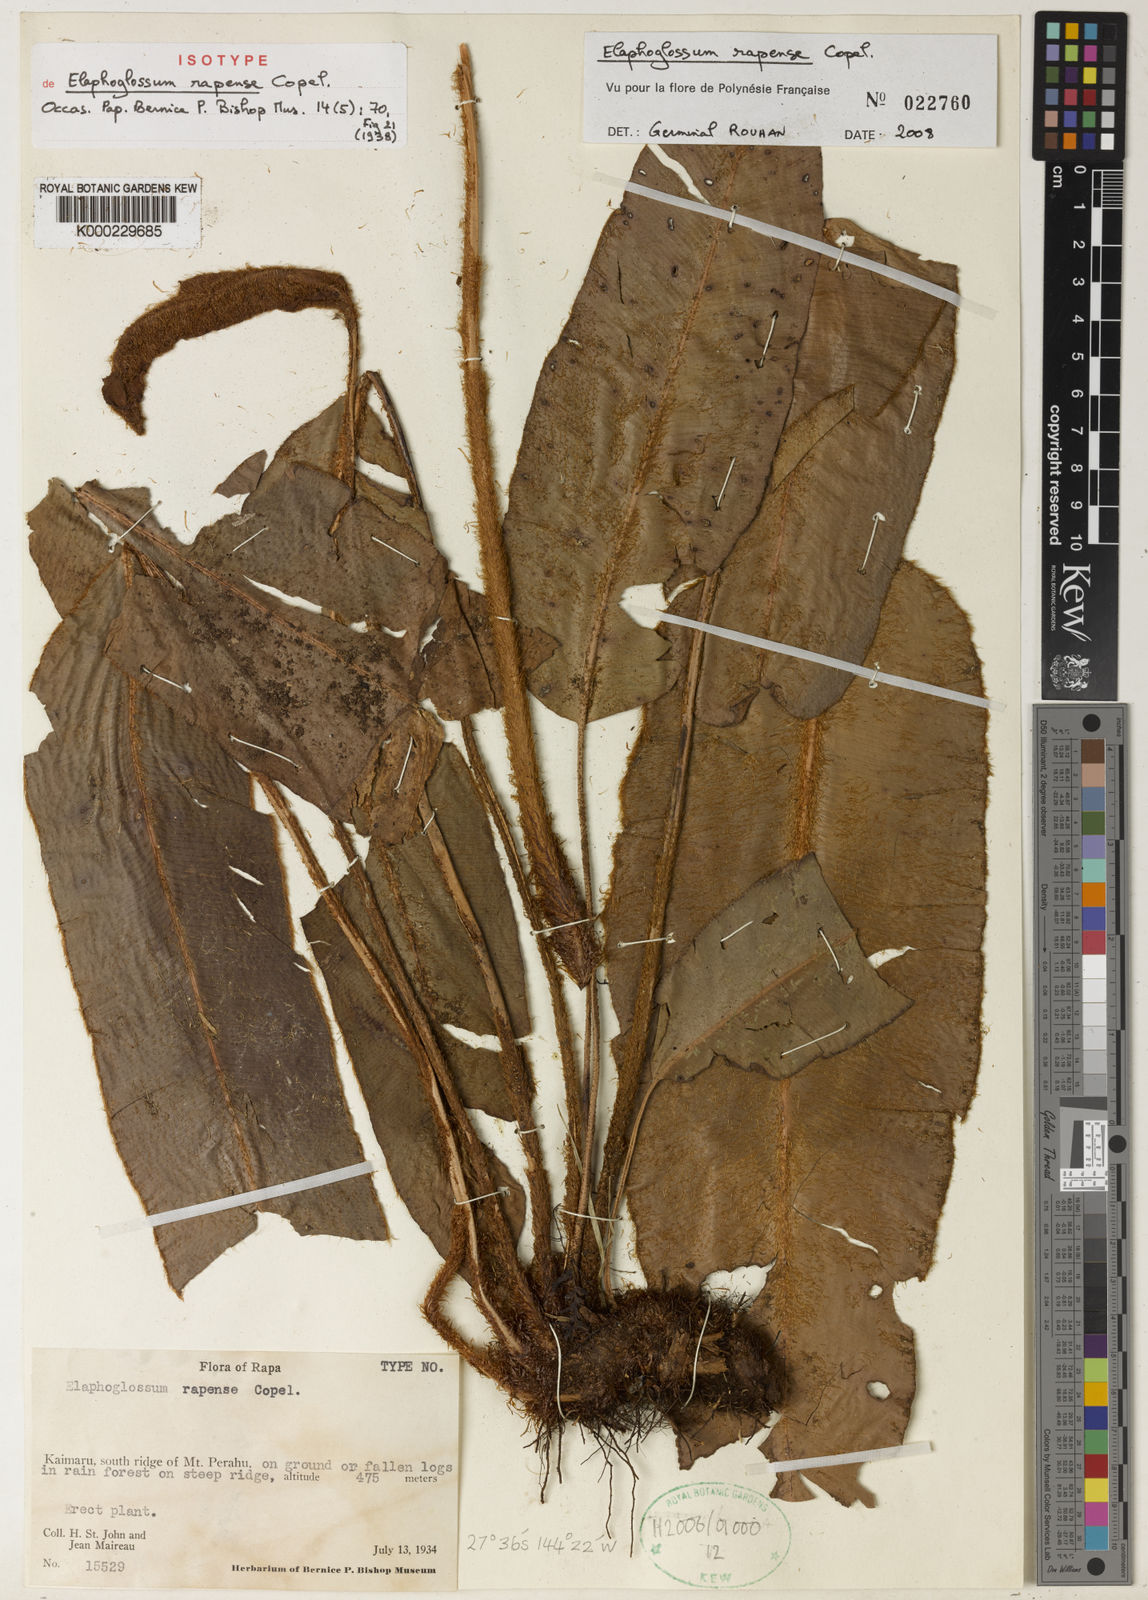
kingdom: Plantae
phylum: Tracheophyta
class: Polypodiopsida
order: Polypodiales
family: Dryopteridaceae
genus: Elaphoglossum
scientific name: Elaphoglossum rapense
